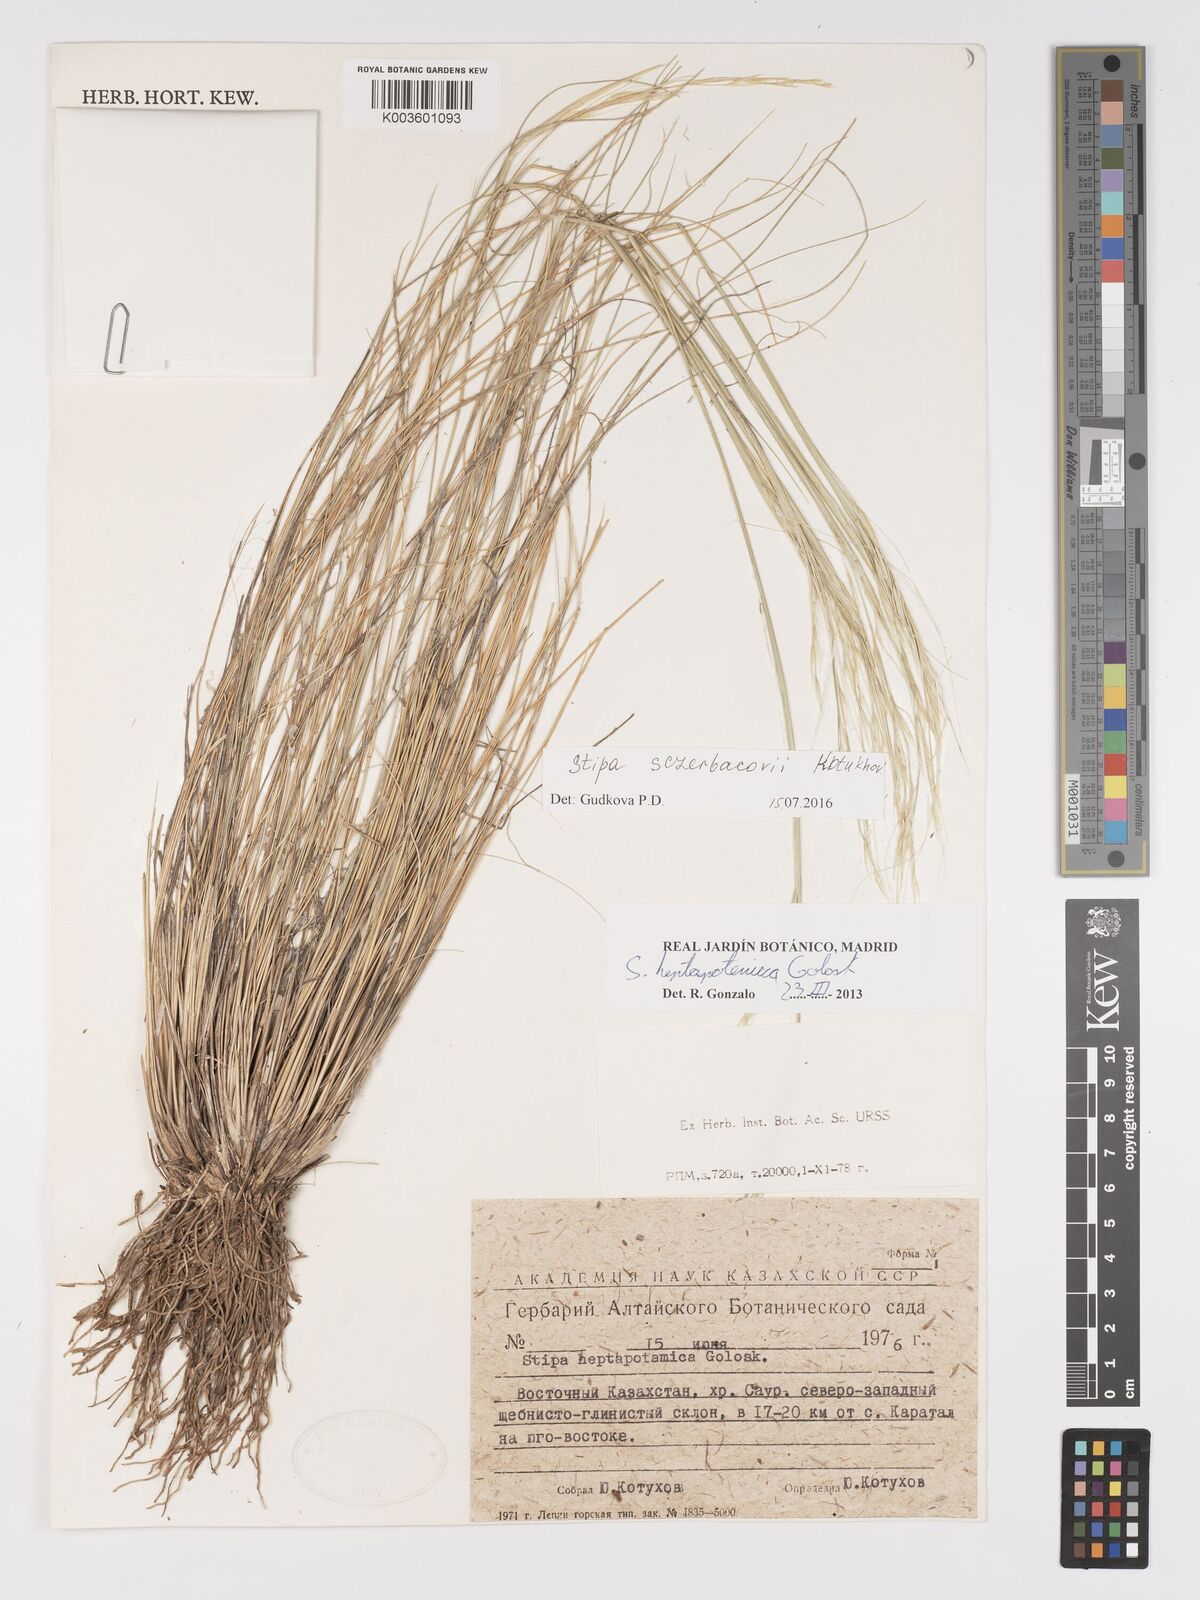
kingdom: Plantae
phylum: Tracheophyta
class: Liliopsida
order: Poales
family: Poaceae
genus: Stipa
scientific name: Stipa heptapotamica
